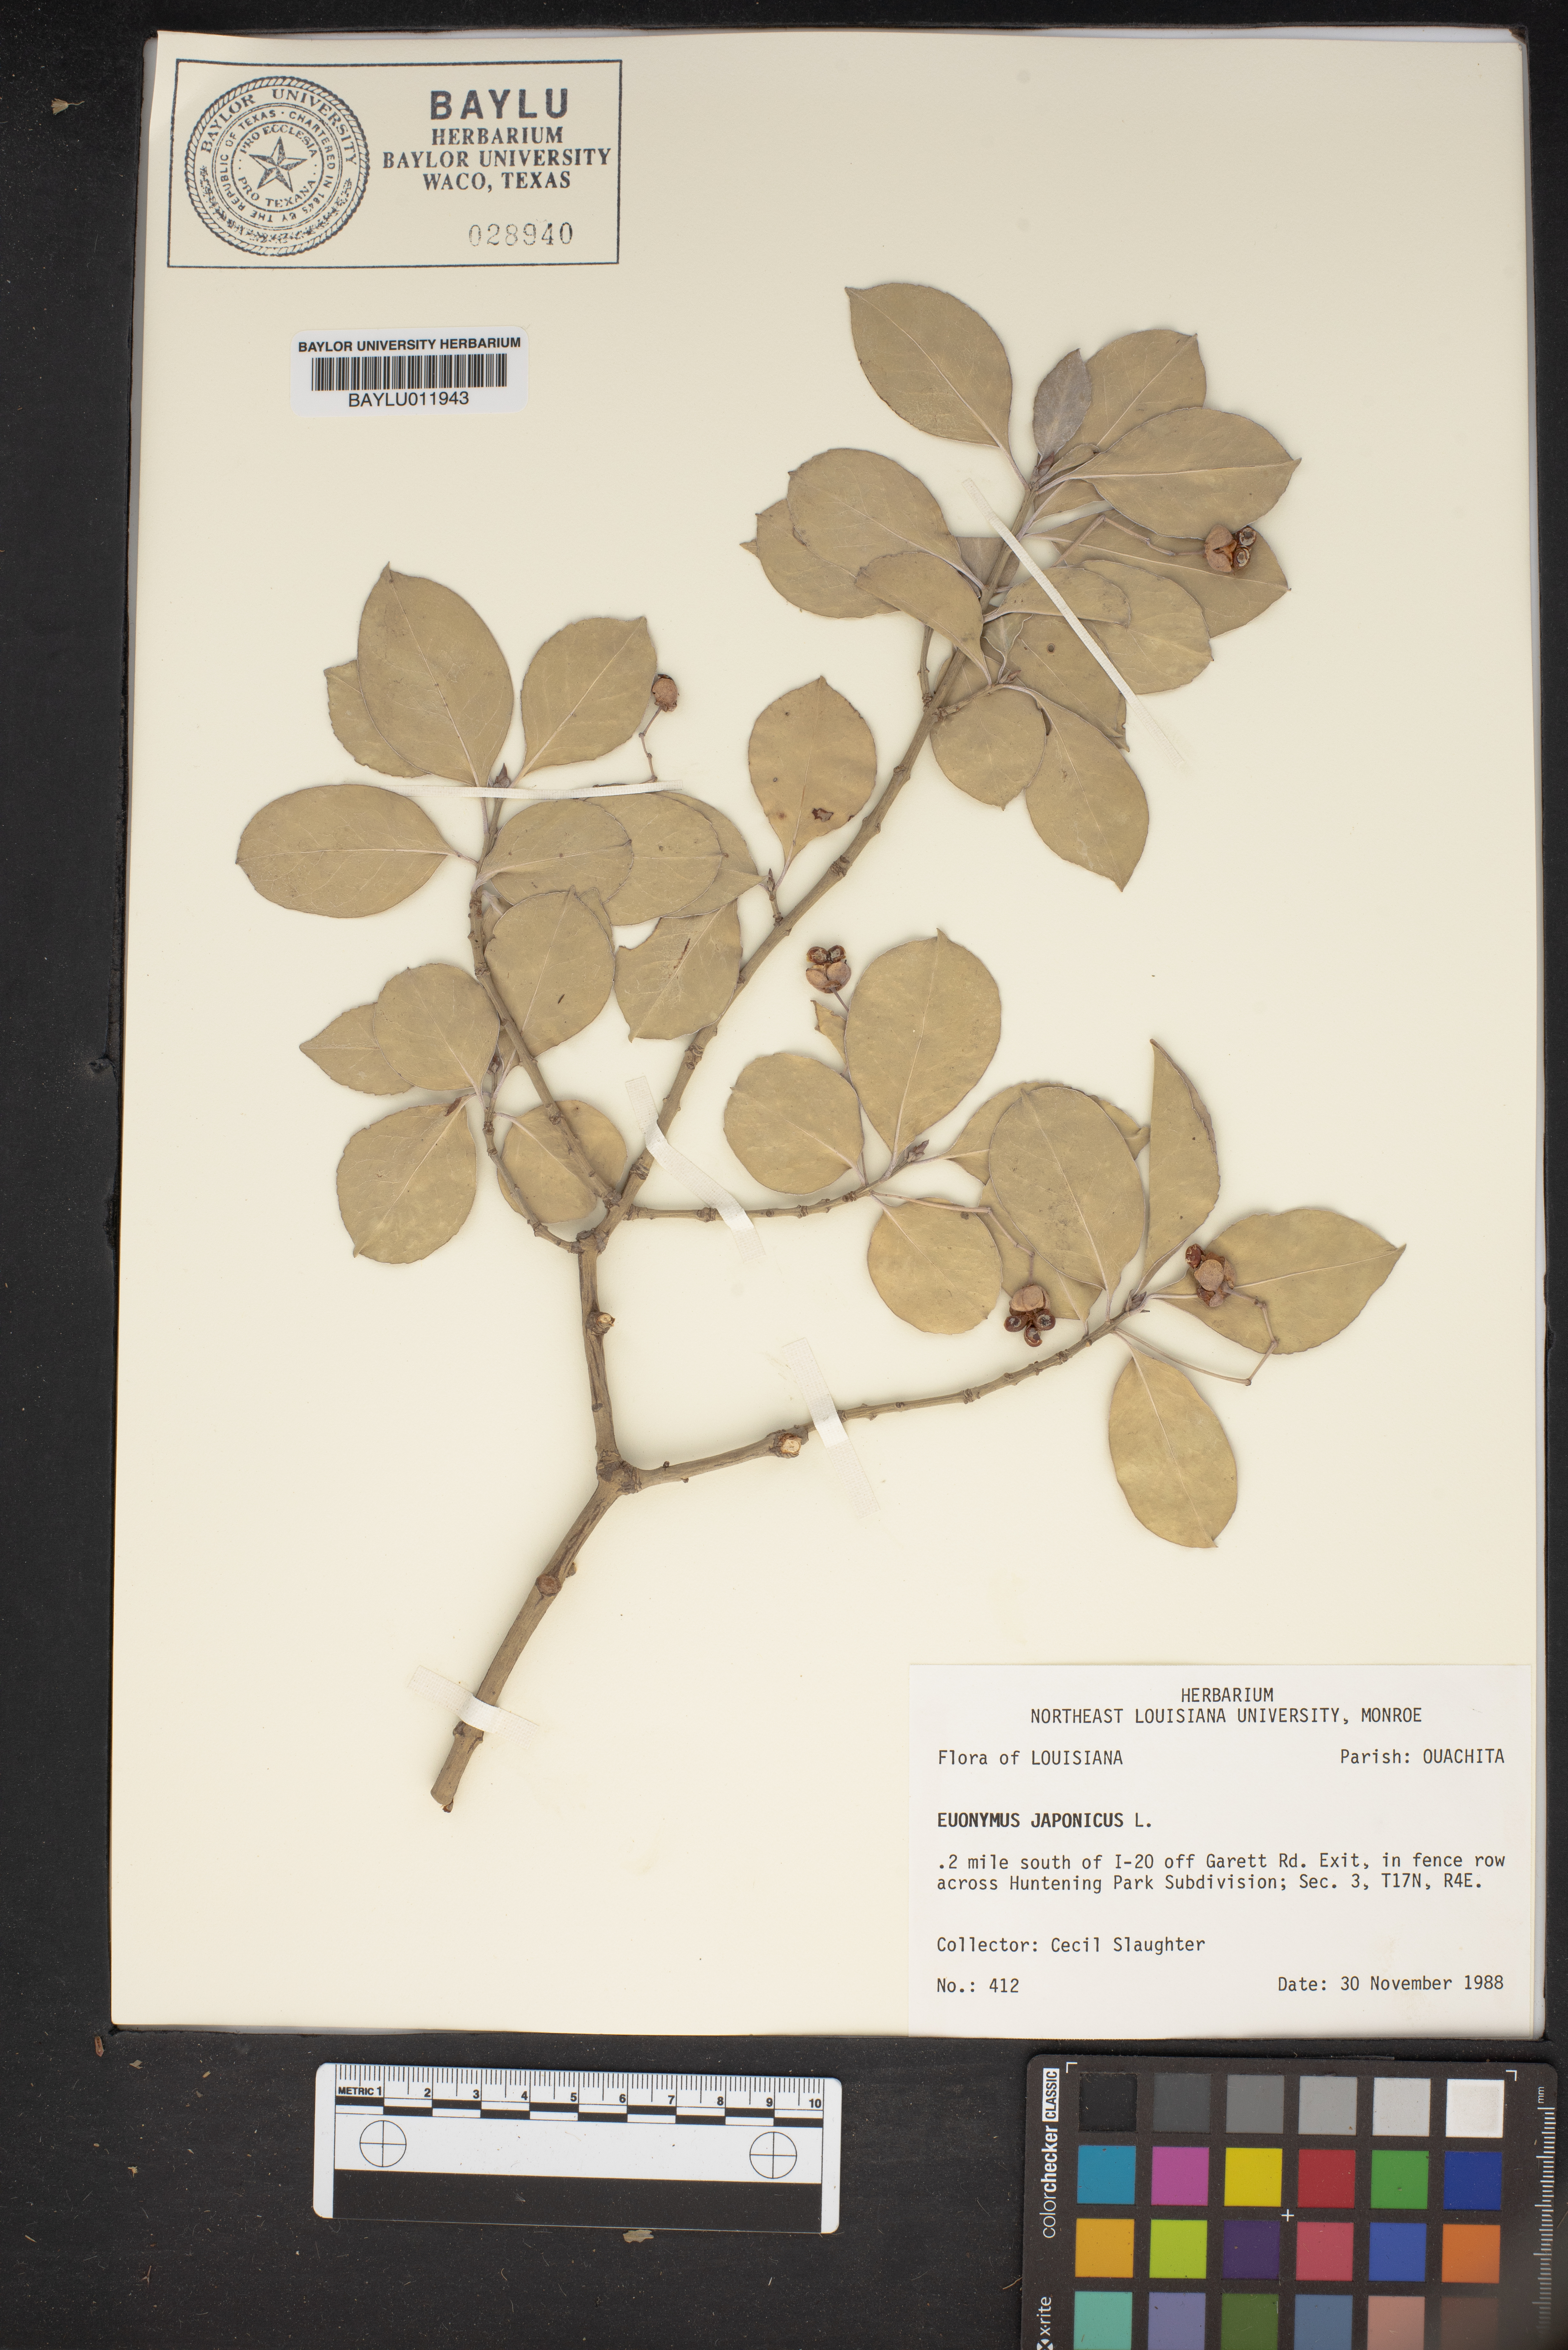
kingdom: Plantae
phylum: Tracheophyta
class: Magnoliopsida
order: Celastrales
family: Celastraceae
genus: Euonymus
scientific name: Euonymus japonicus
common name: Japanese spindletree
